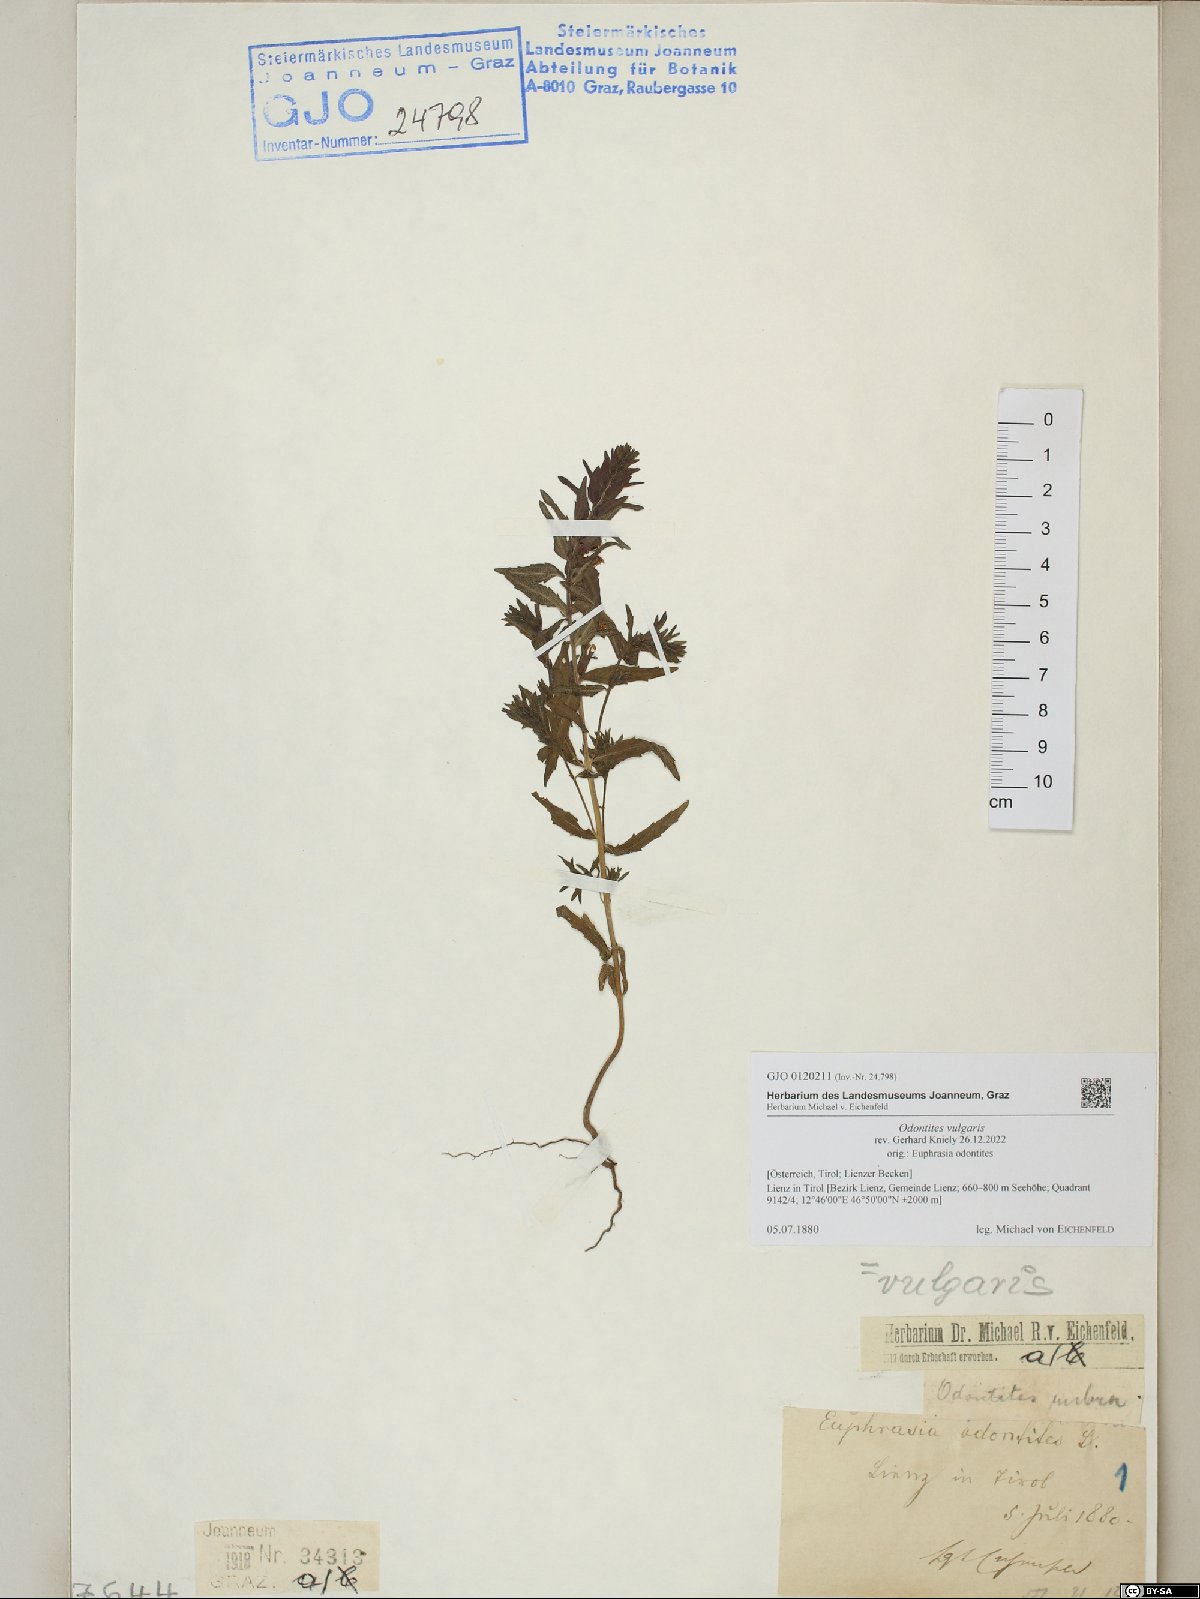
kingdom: Plantae
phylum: Tracheophyta
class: Magnoliopsida
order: Lamiales
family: Orobanchaceae
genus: Odontites
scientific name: Odontites vulgaris
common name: Broomrape
